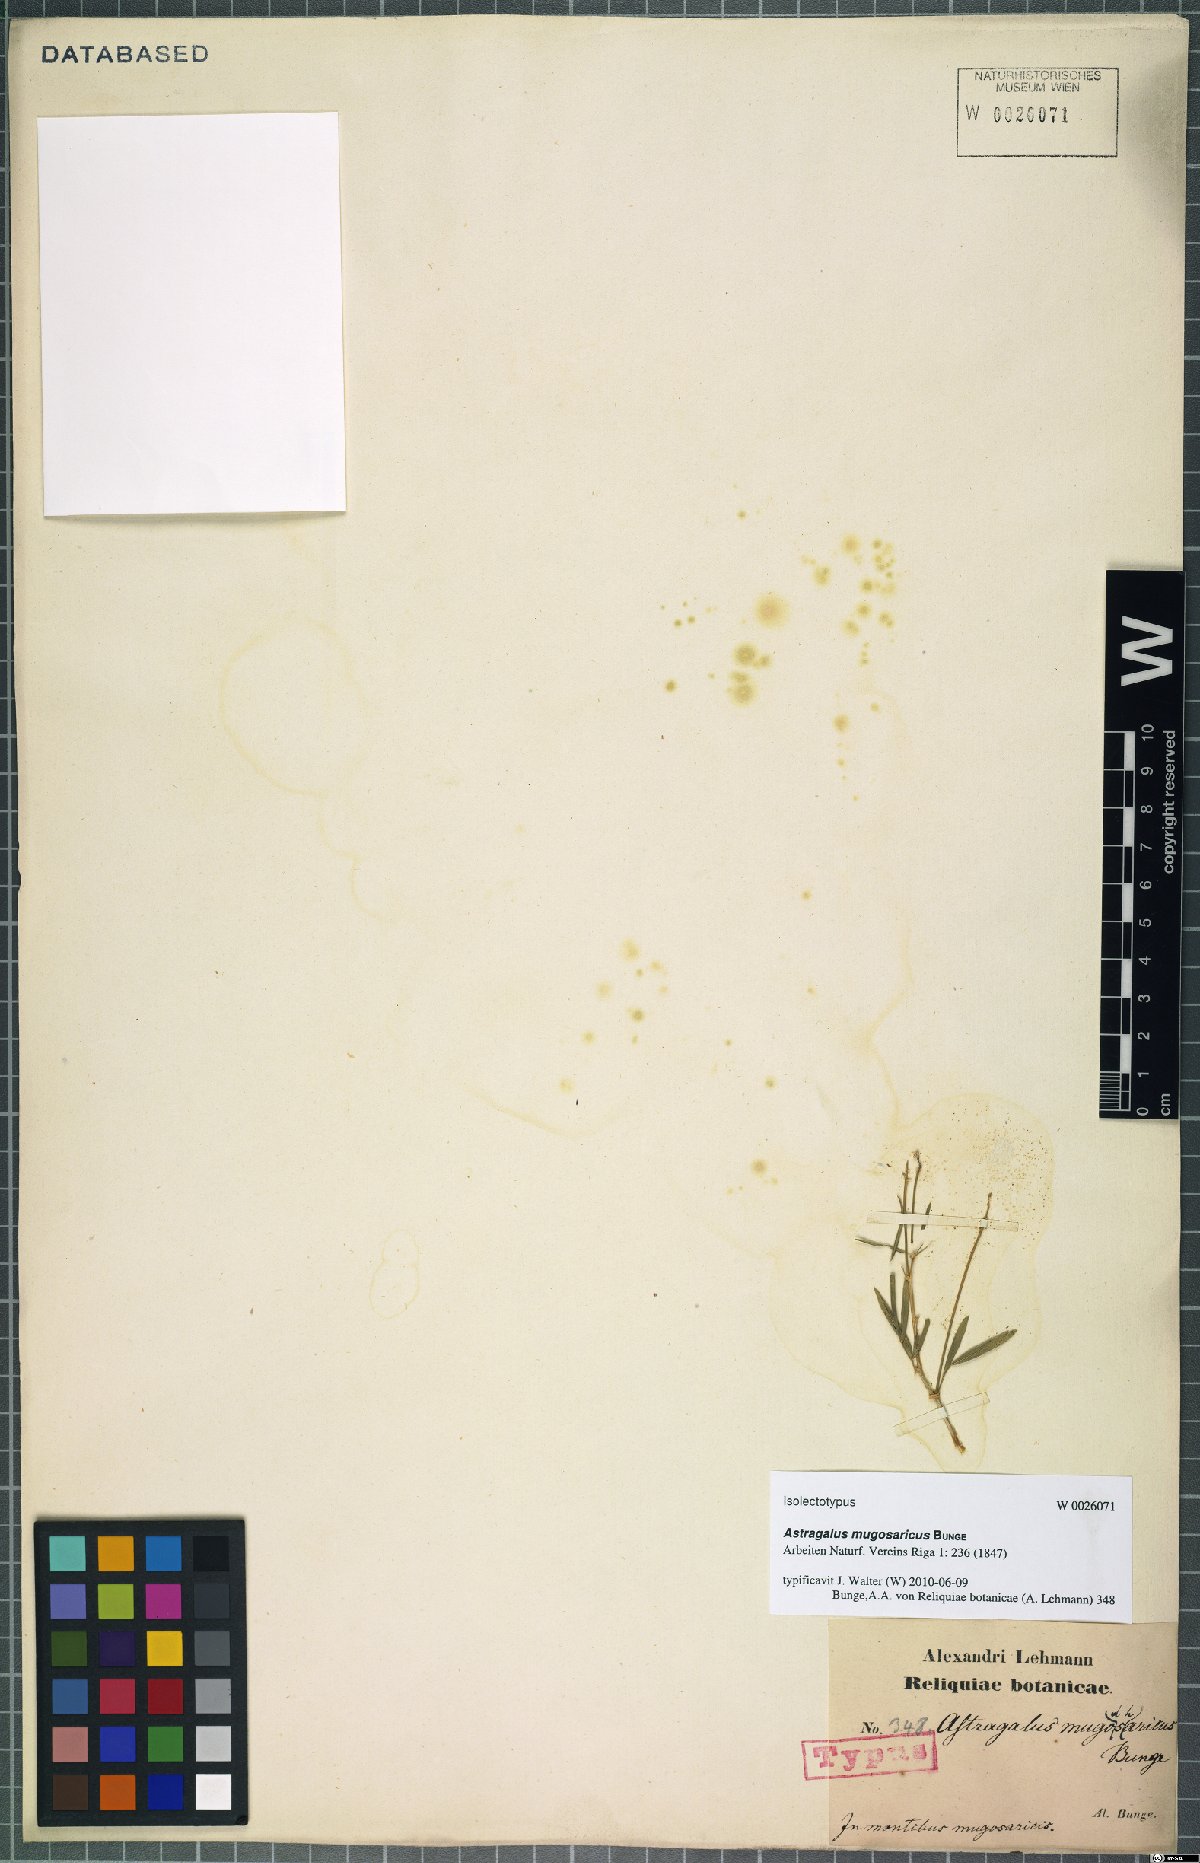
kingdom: Plantae
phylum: Tracheophyta
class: Magnoliopsida
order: Fabales
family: Fabaceae
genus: Astragalus
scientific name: Astragalus mugosaricus
